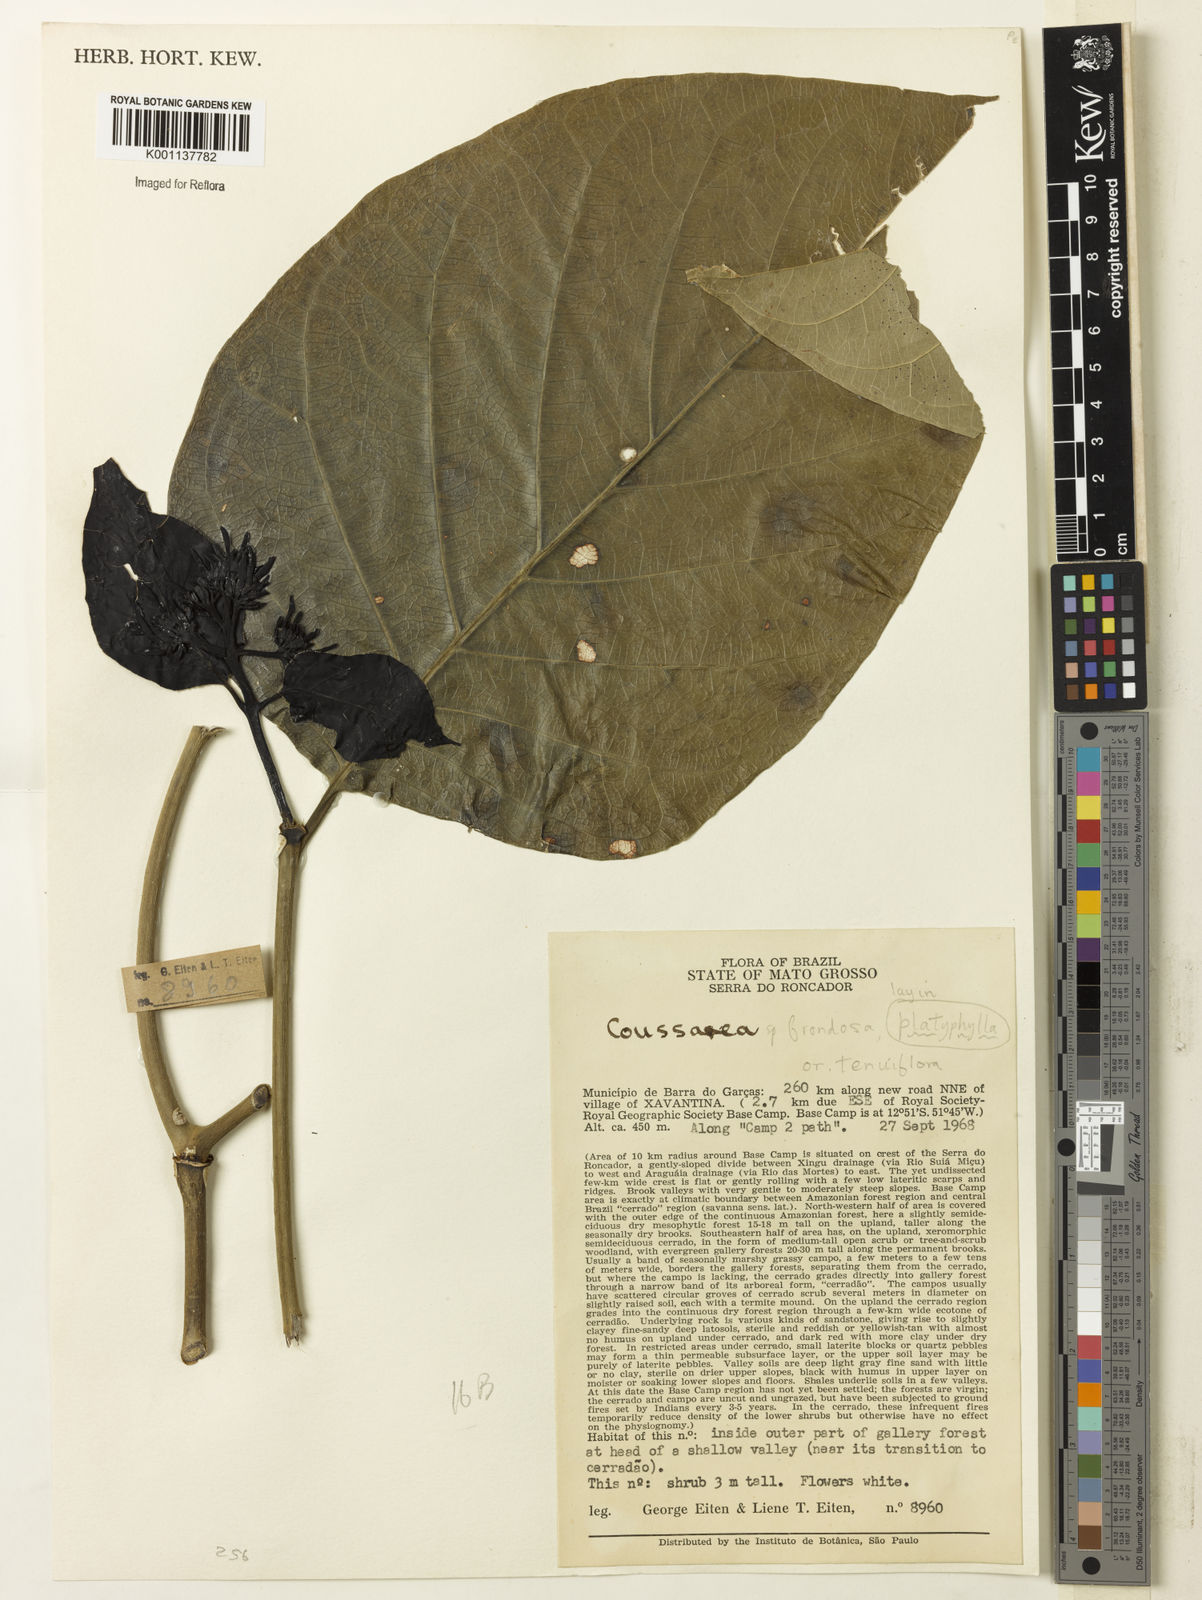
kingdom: Plantae
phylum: Tracheophyta
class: Magnoliopsida
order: Gentianales
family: Rubiaceae
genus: Coussarea
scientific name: Coussarea
